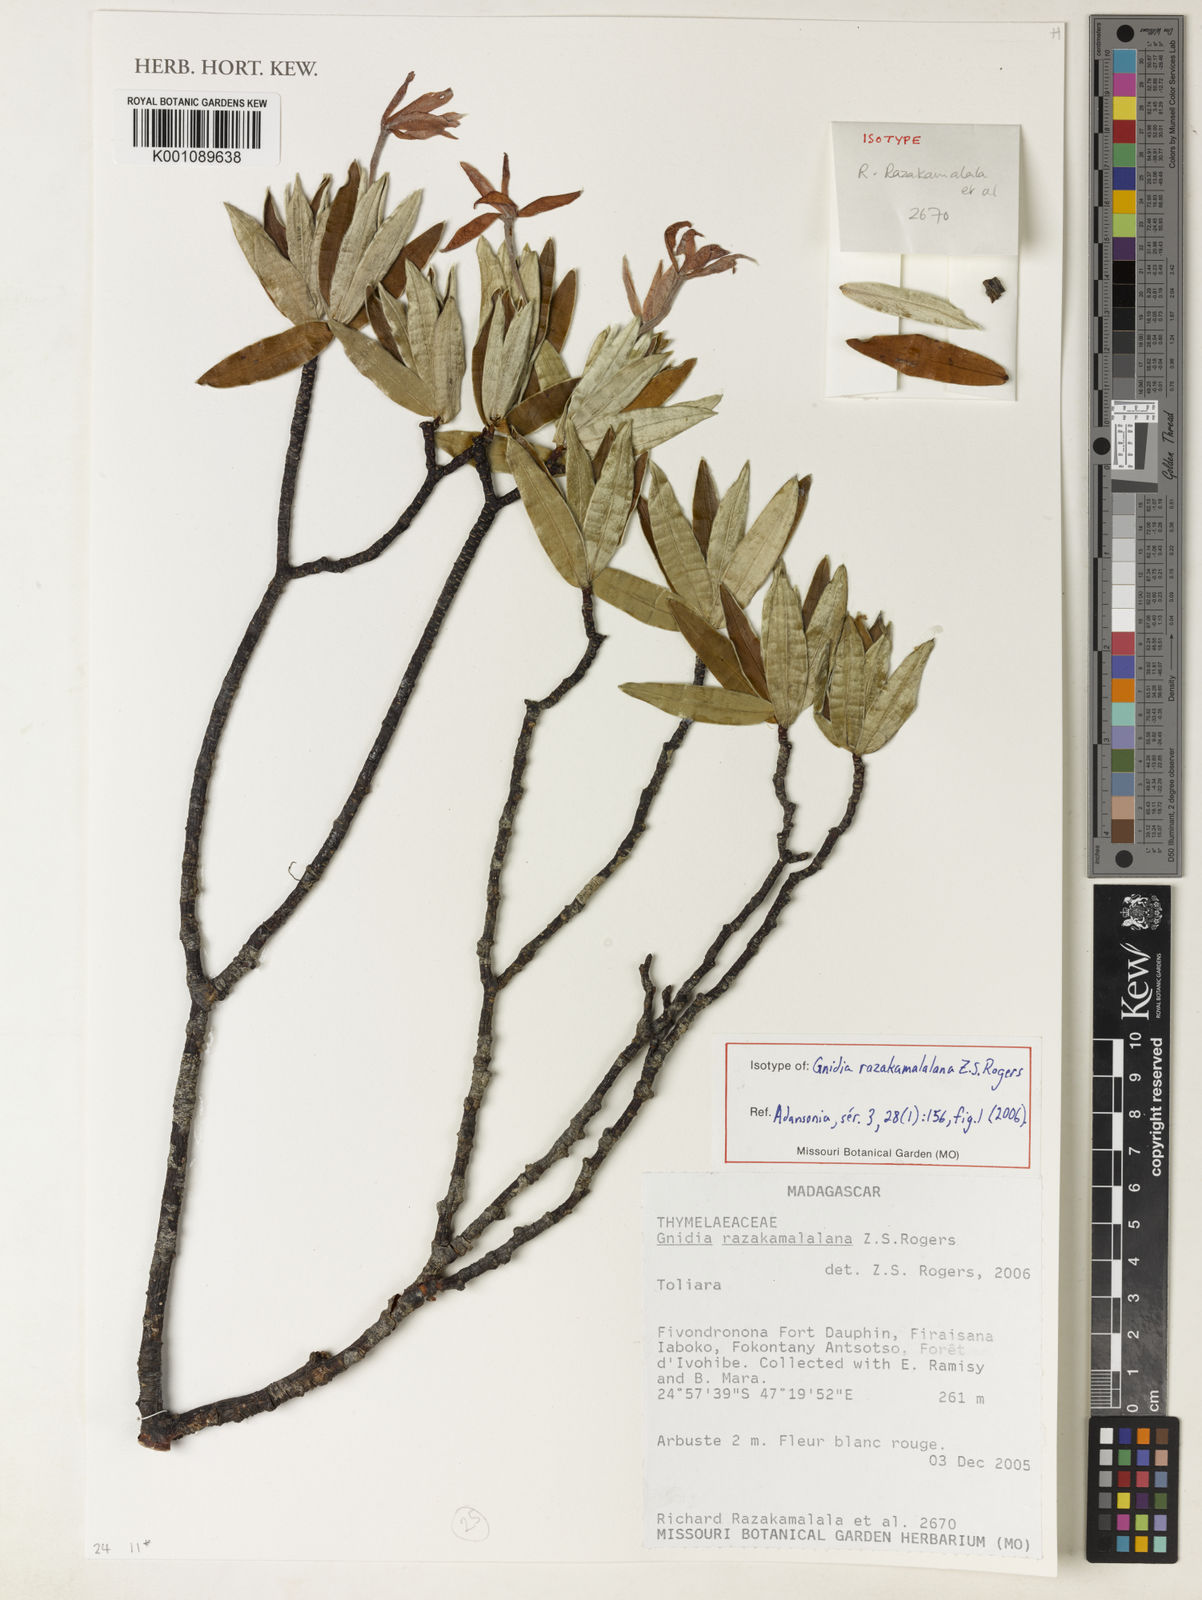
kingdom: Plantae
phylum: Tracheophyta
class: Magnoliopsida
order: Malvales
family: Thymelaeaceae
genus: Gnidia
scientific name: Gnidia razakamalalana
